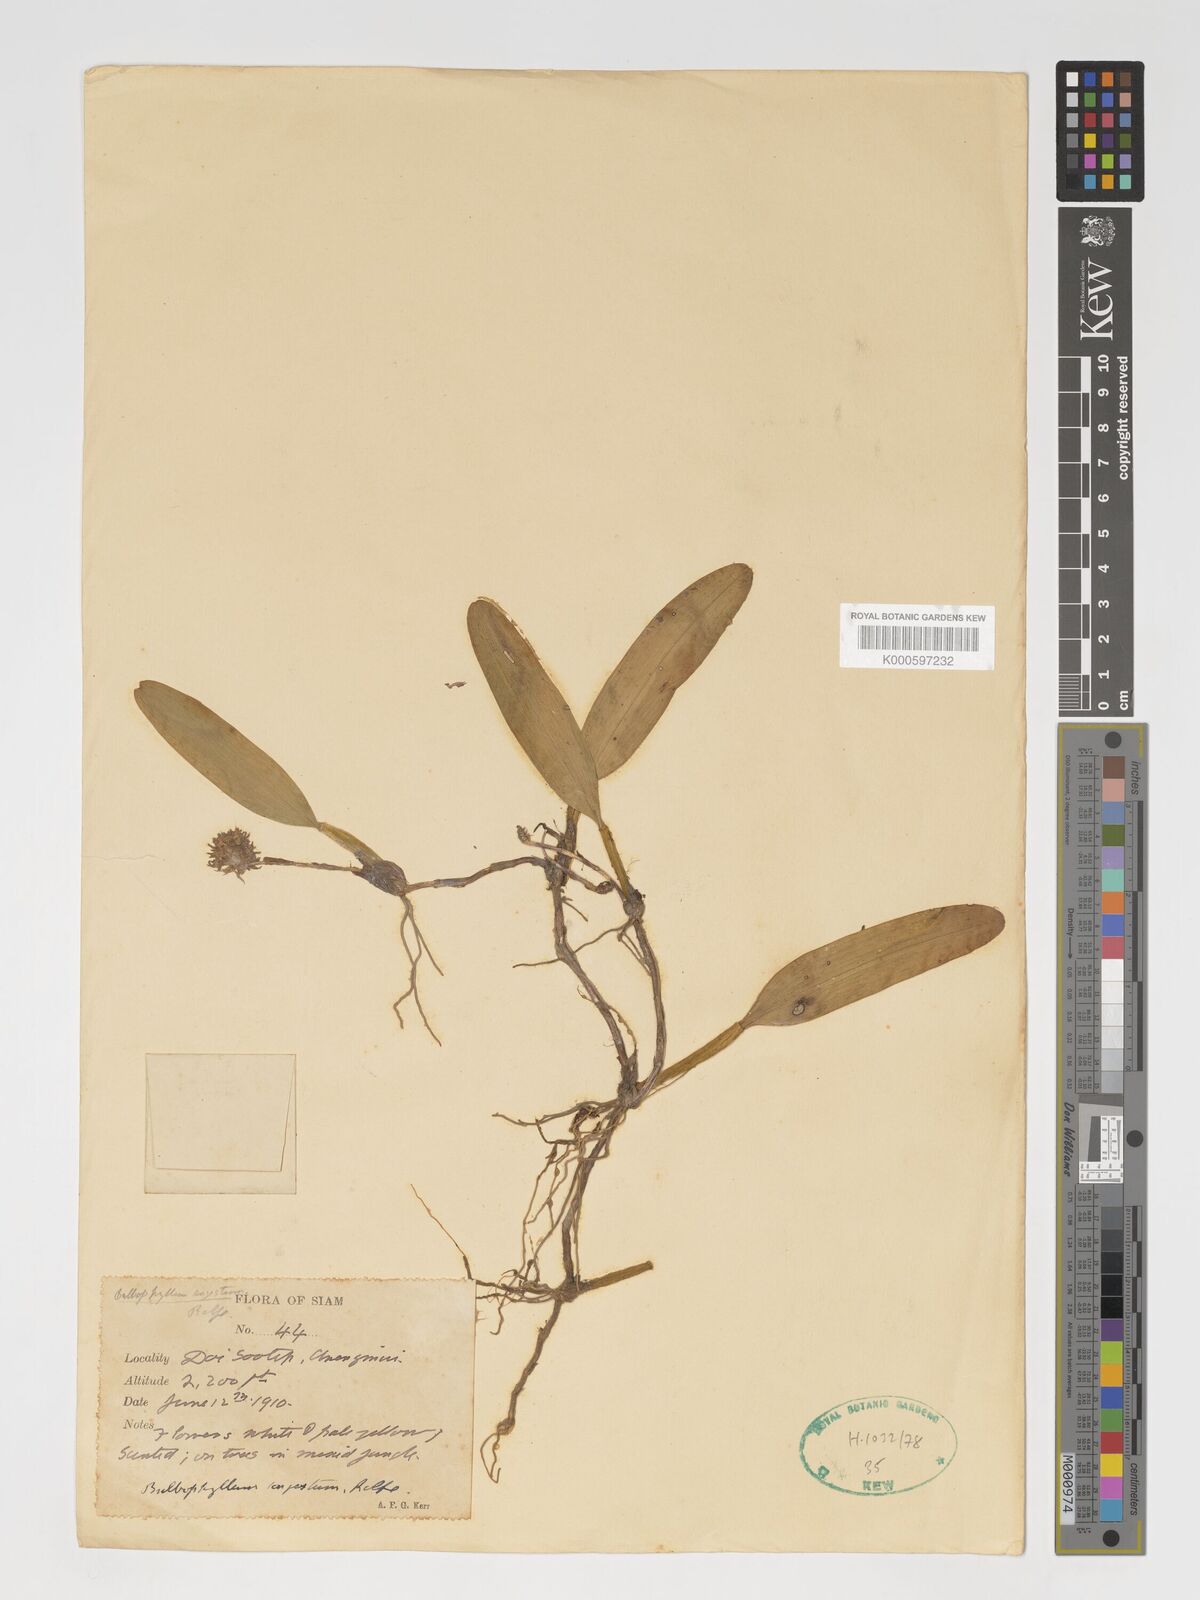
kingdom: Plantae
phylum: Tracheophyta
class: Liliopsida
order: Asparagales
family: Orchidaceae
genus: Bulbophyllum
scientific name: Bulbophyllum odoratissimum
